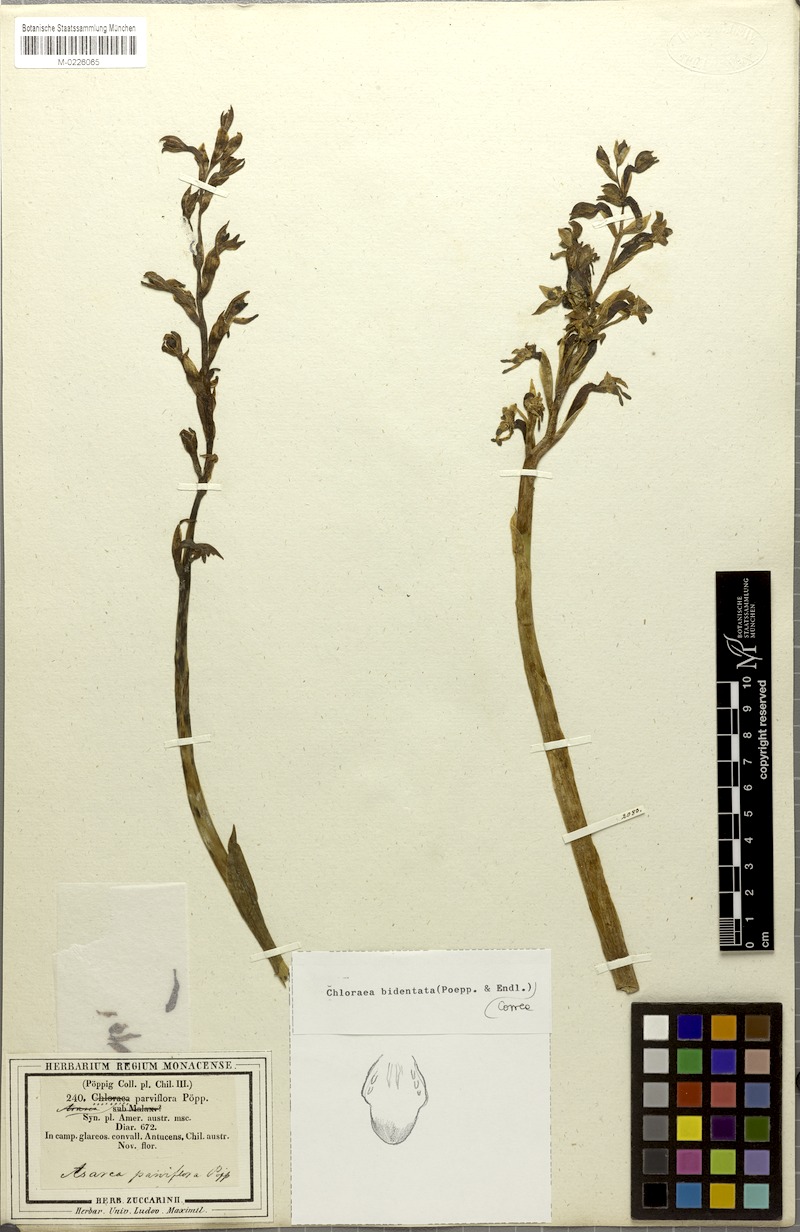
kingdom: Plantae
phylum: Tracheophyta
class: Liliopsida
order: Asparagales
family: Orchidaceae
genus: Chloraea
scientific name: Chloraea galeata
